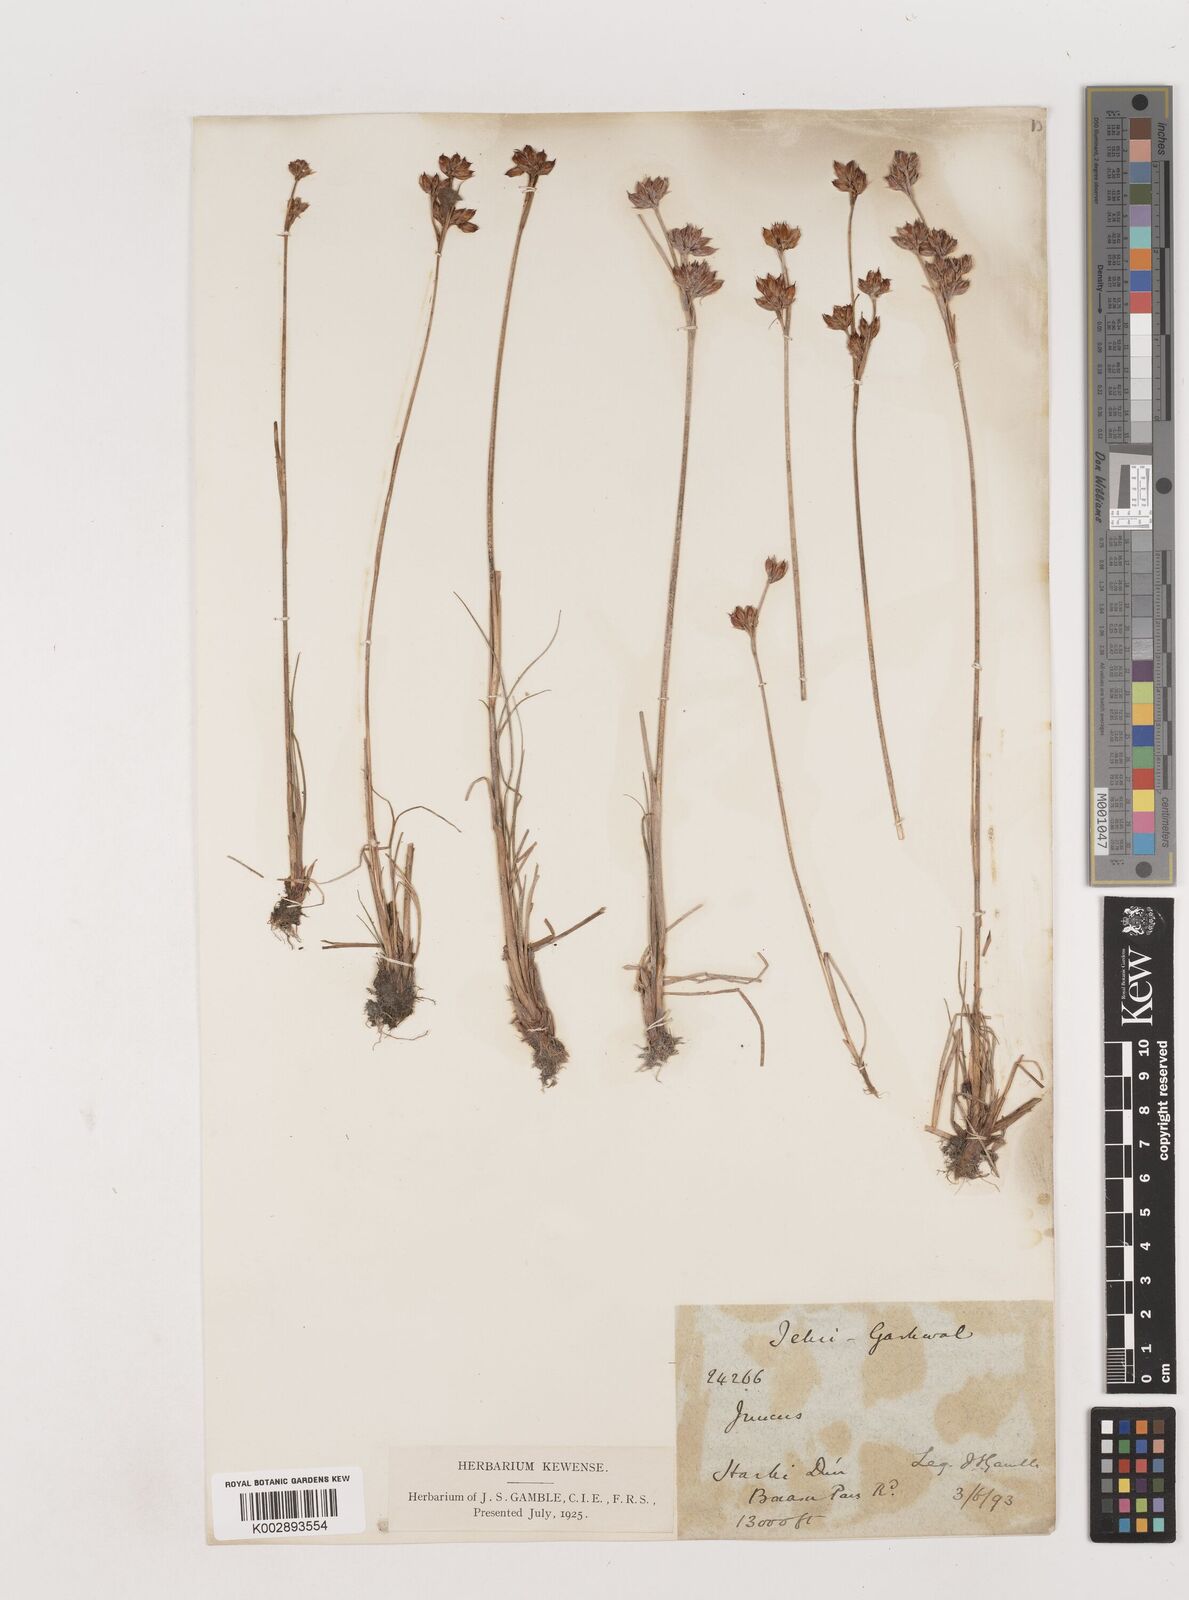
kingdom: Plantae
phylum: Tracheophyta
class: Liliopsida
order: Poales
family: Juncaceae
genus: Juncus
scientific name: Juncus himalensis
